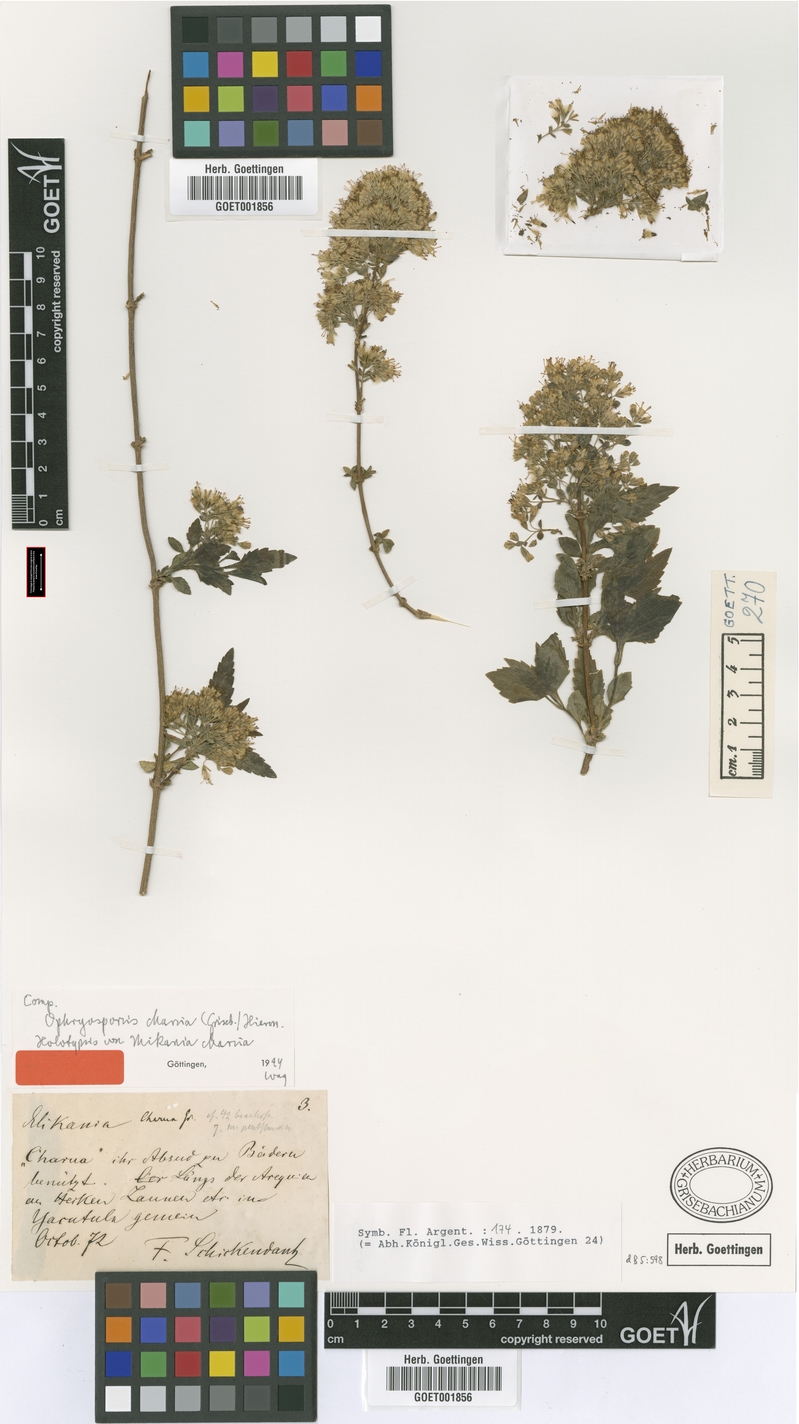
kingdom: Plantae
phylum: Tracheophyta
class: Magnoliopsida
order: Asterales
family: Asteraceae
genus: Ophryosporus
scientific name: Ophryosporus charua
